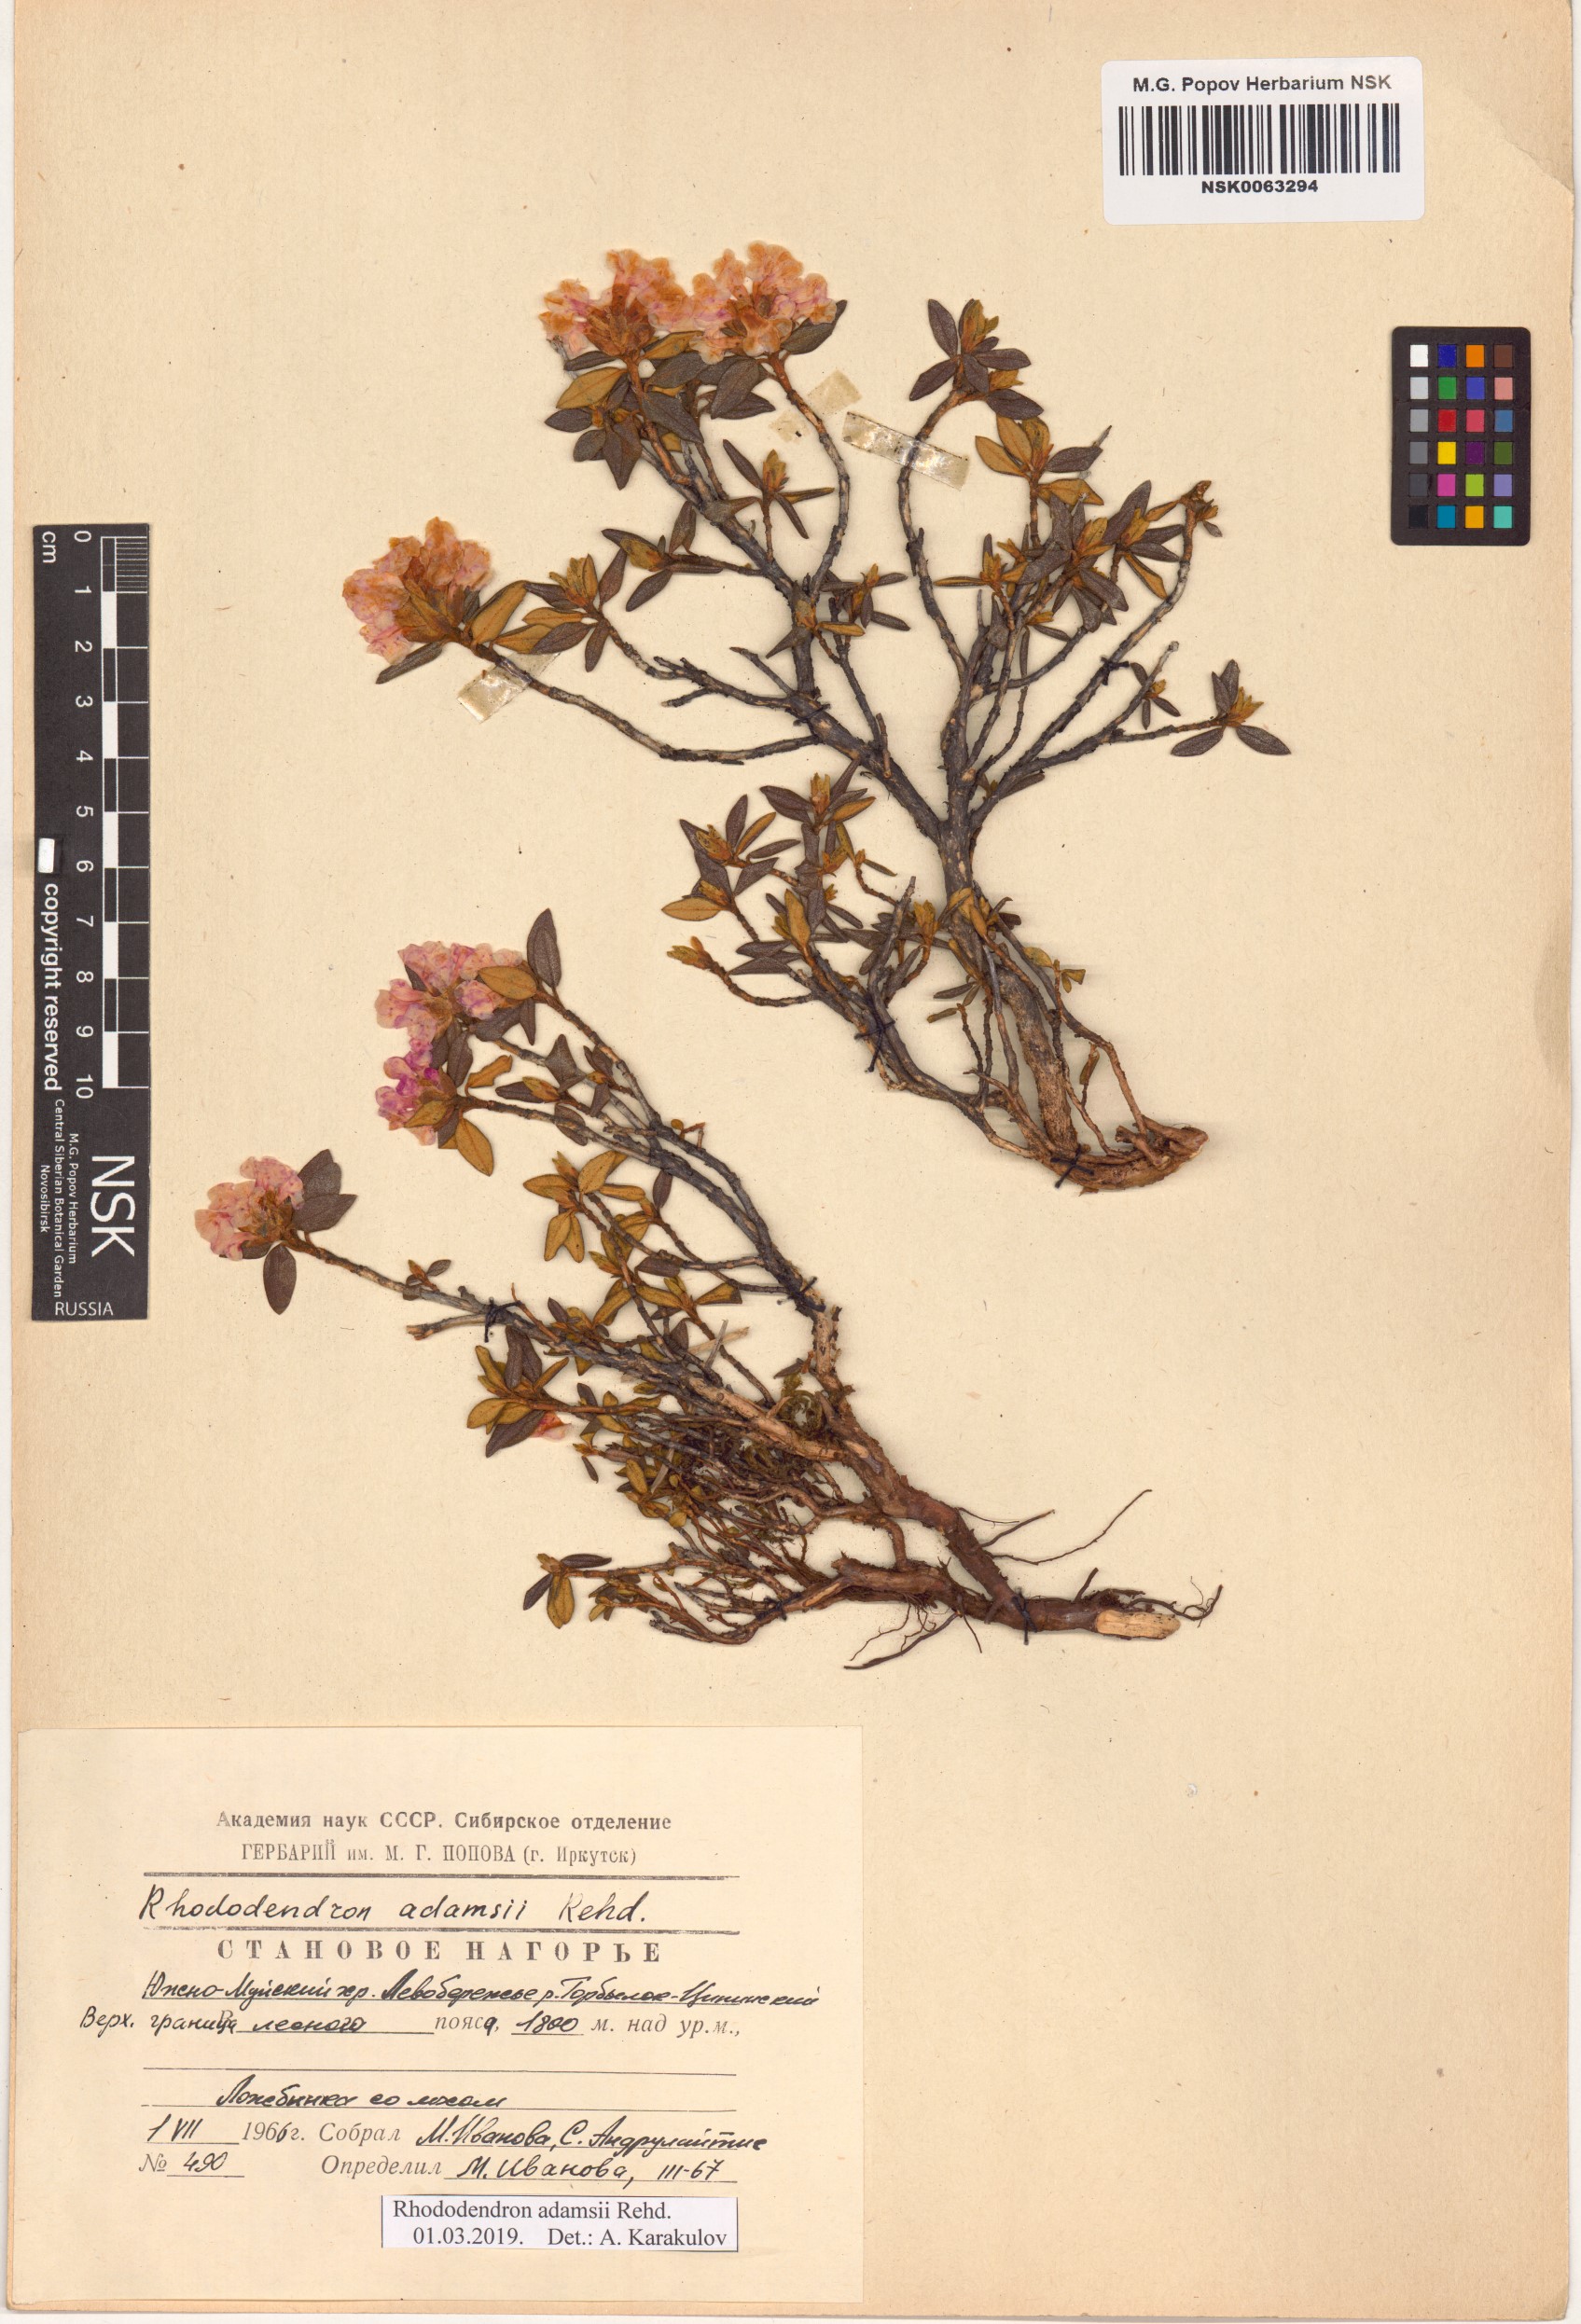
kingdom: Plantae
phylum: Tracheophyta
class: Magnoliopsida
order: Ericales
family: Ericaceae
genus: Rhododendron
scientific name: Rhododendron adamsii
